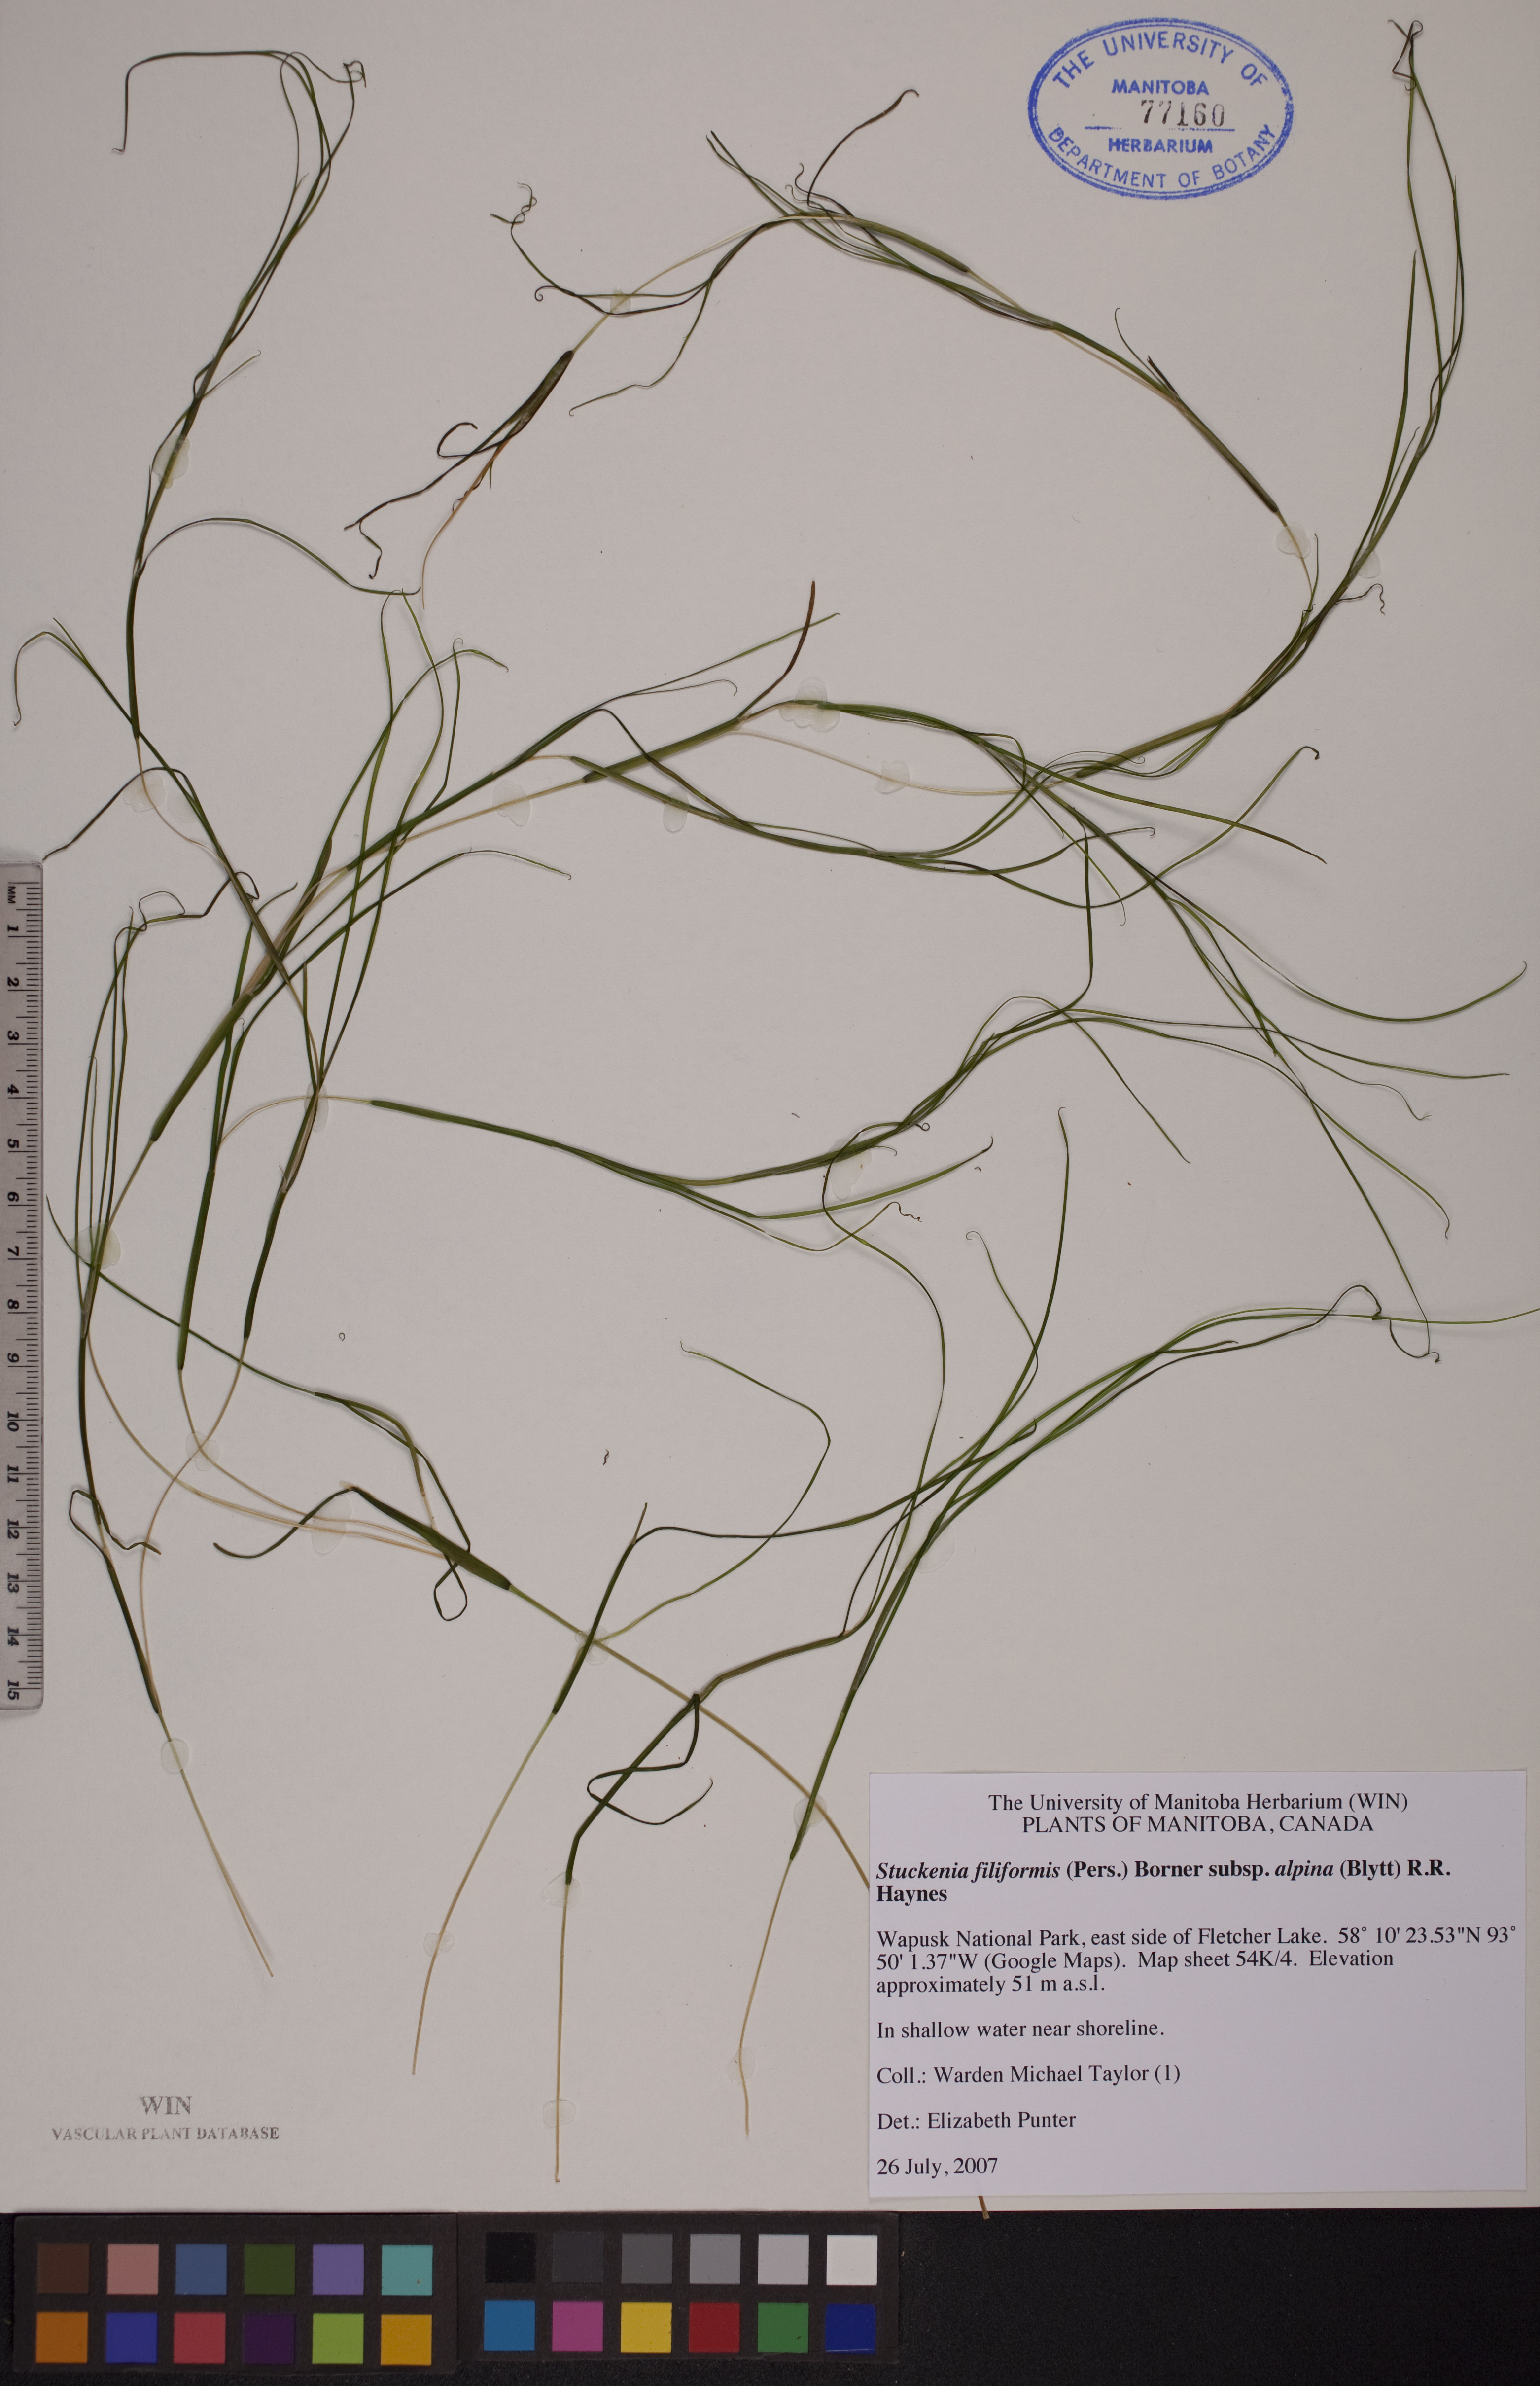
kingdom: Plantae
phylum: Tracheophyta
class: Liliopsida
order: Alismatales
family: Potamogetonaceae
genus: Stuckenia
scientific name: Stuckenia filiformis
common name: Alpine thread-leaved pondweed
